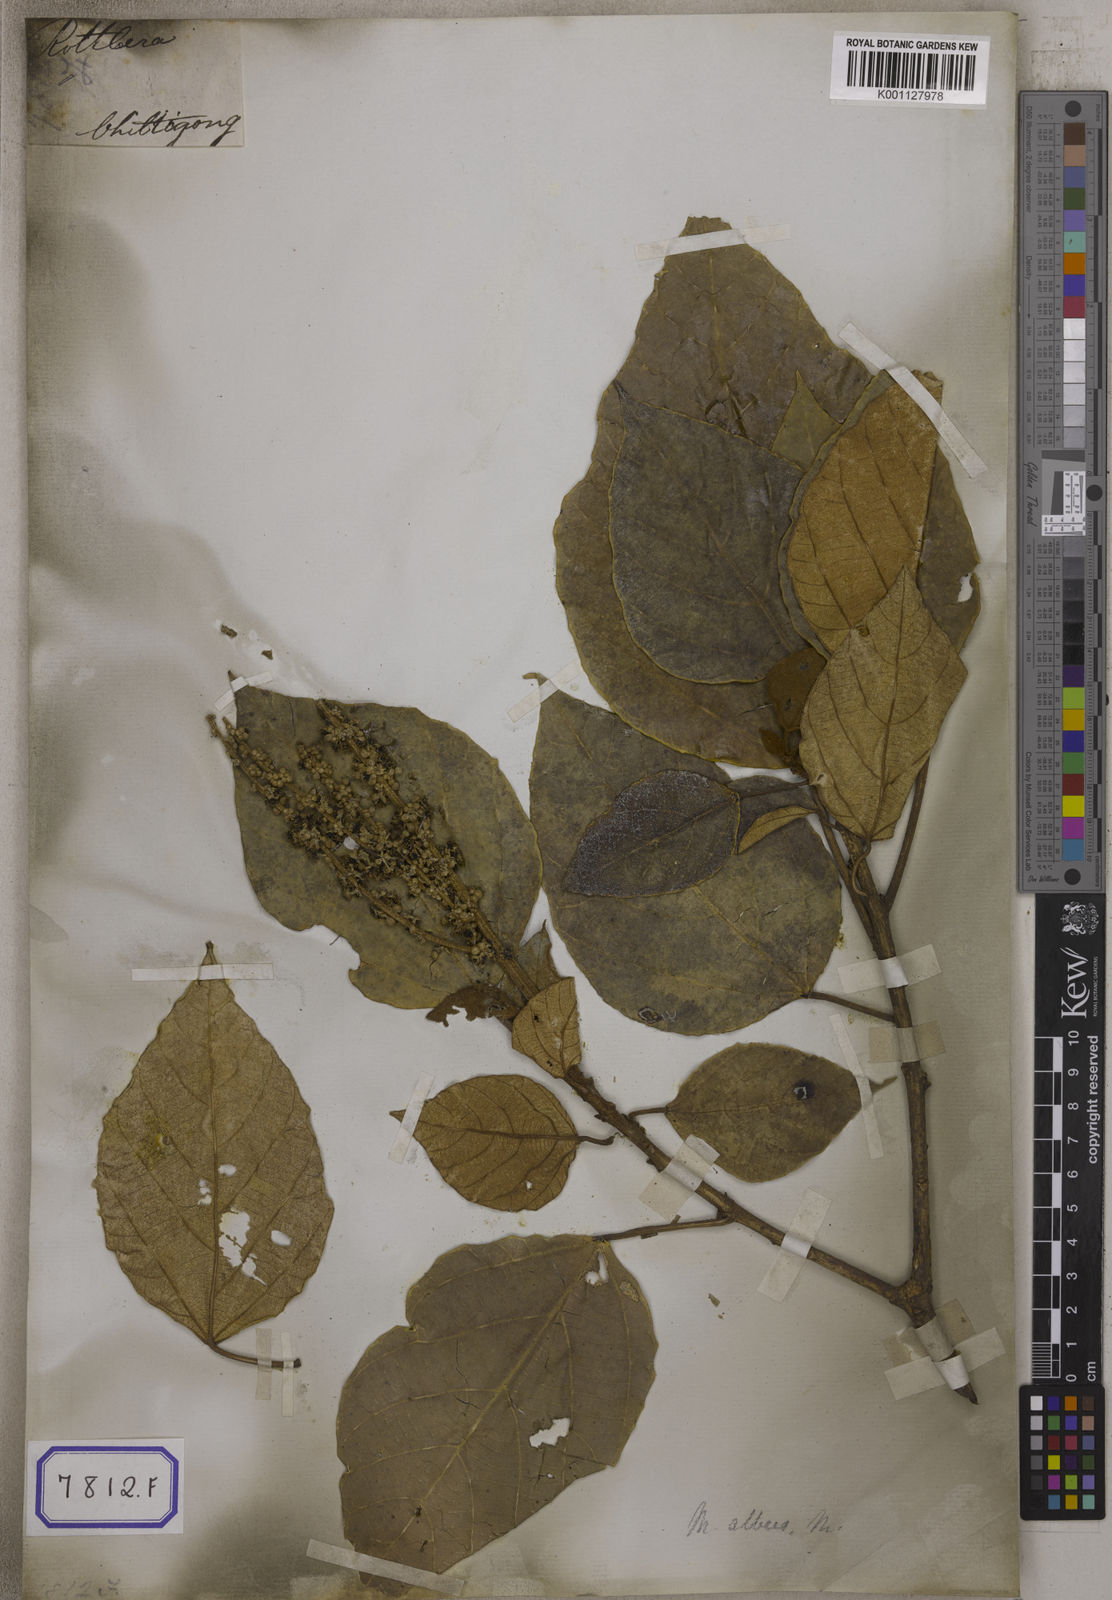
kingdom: Plantae
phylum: Tracheophyta
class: Magnoliopsida
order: Malpighiales
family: Euphorbiaceae
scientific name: Euphorbiaceae
